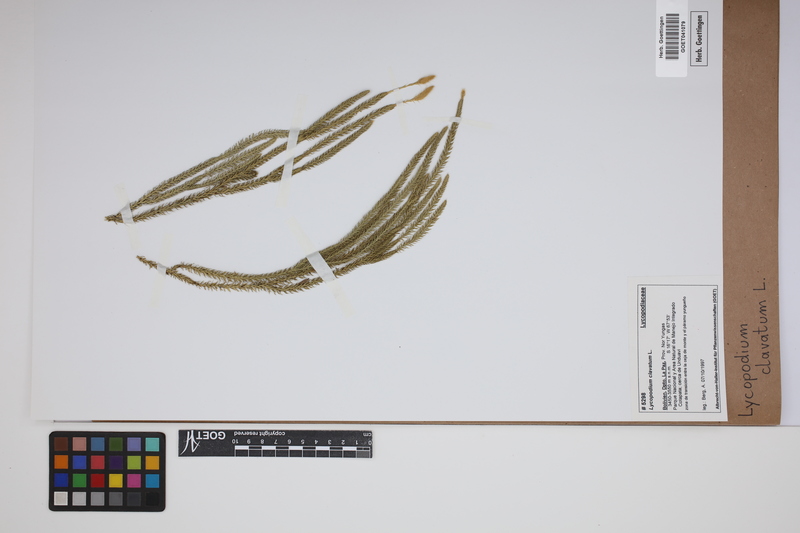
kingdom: Plantae
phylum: Tracheophyta
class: Lycopodiopsida
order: Lycopodiales
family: Lycopodiaceae
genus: Lycopodium
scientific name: Lycopodium clavatum
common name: Stag's-horn clubmoss
